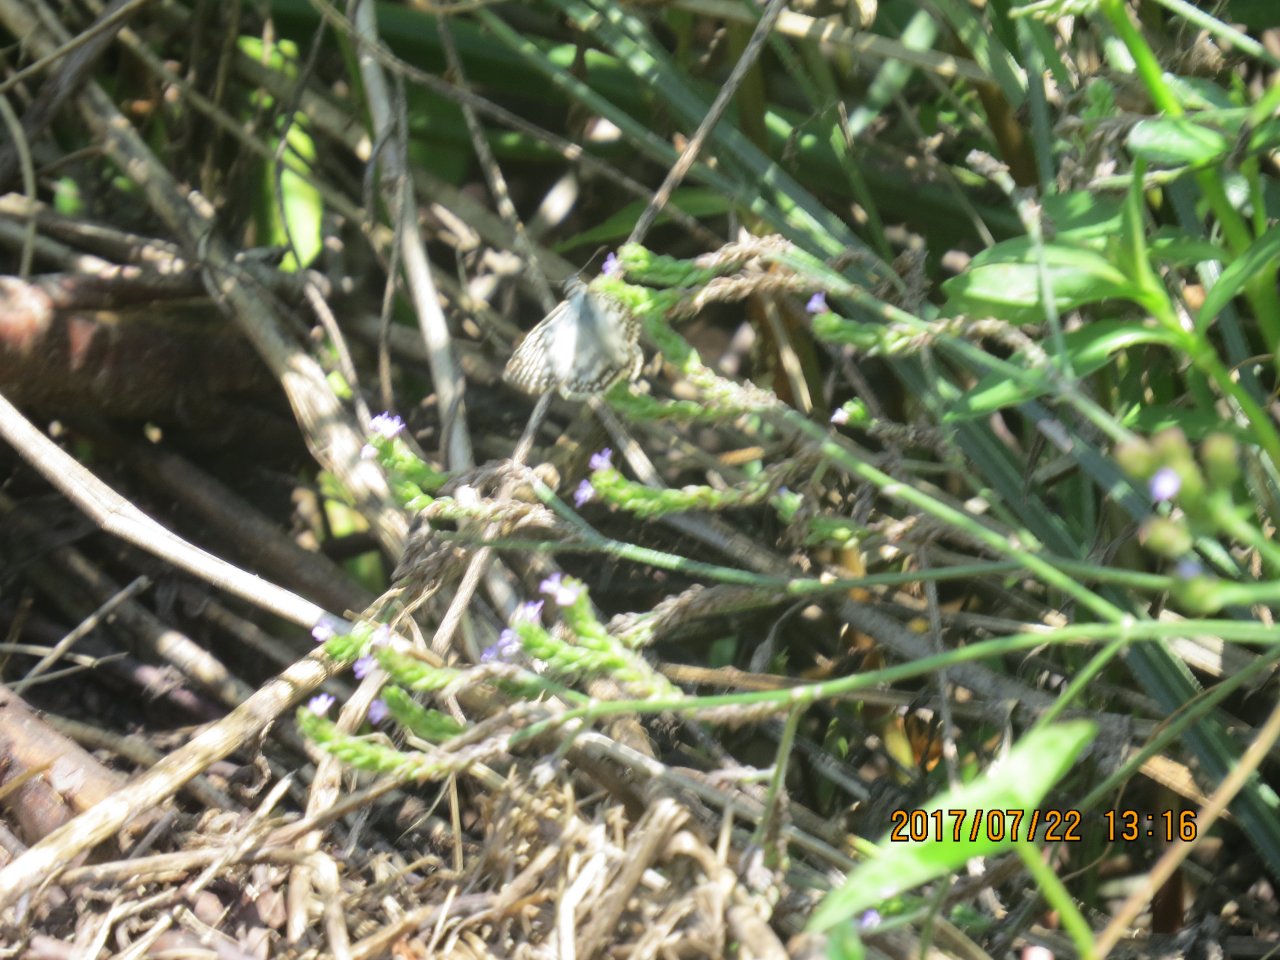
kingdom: Animalia
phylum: Arthropoda
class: Insecta
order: Lepidoptera
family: Hesperiidae
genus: Pyrgus
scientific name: Pyrgus communis
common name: White Checkered-Skipper
